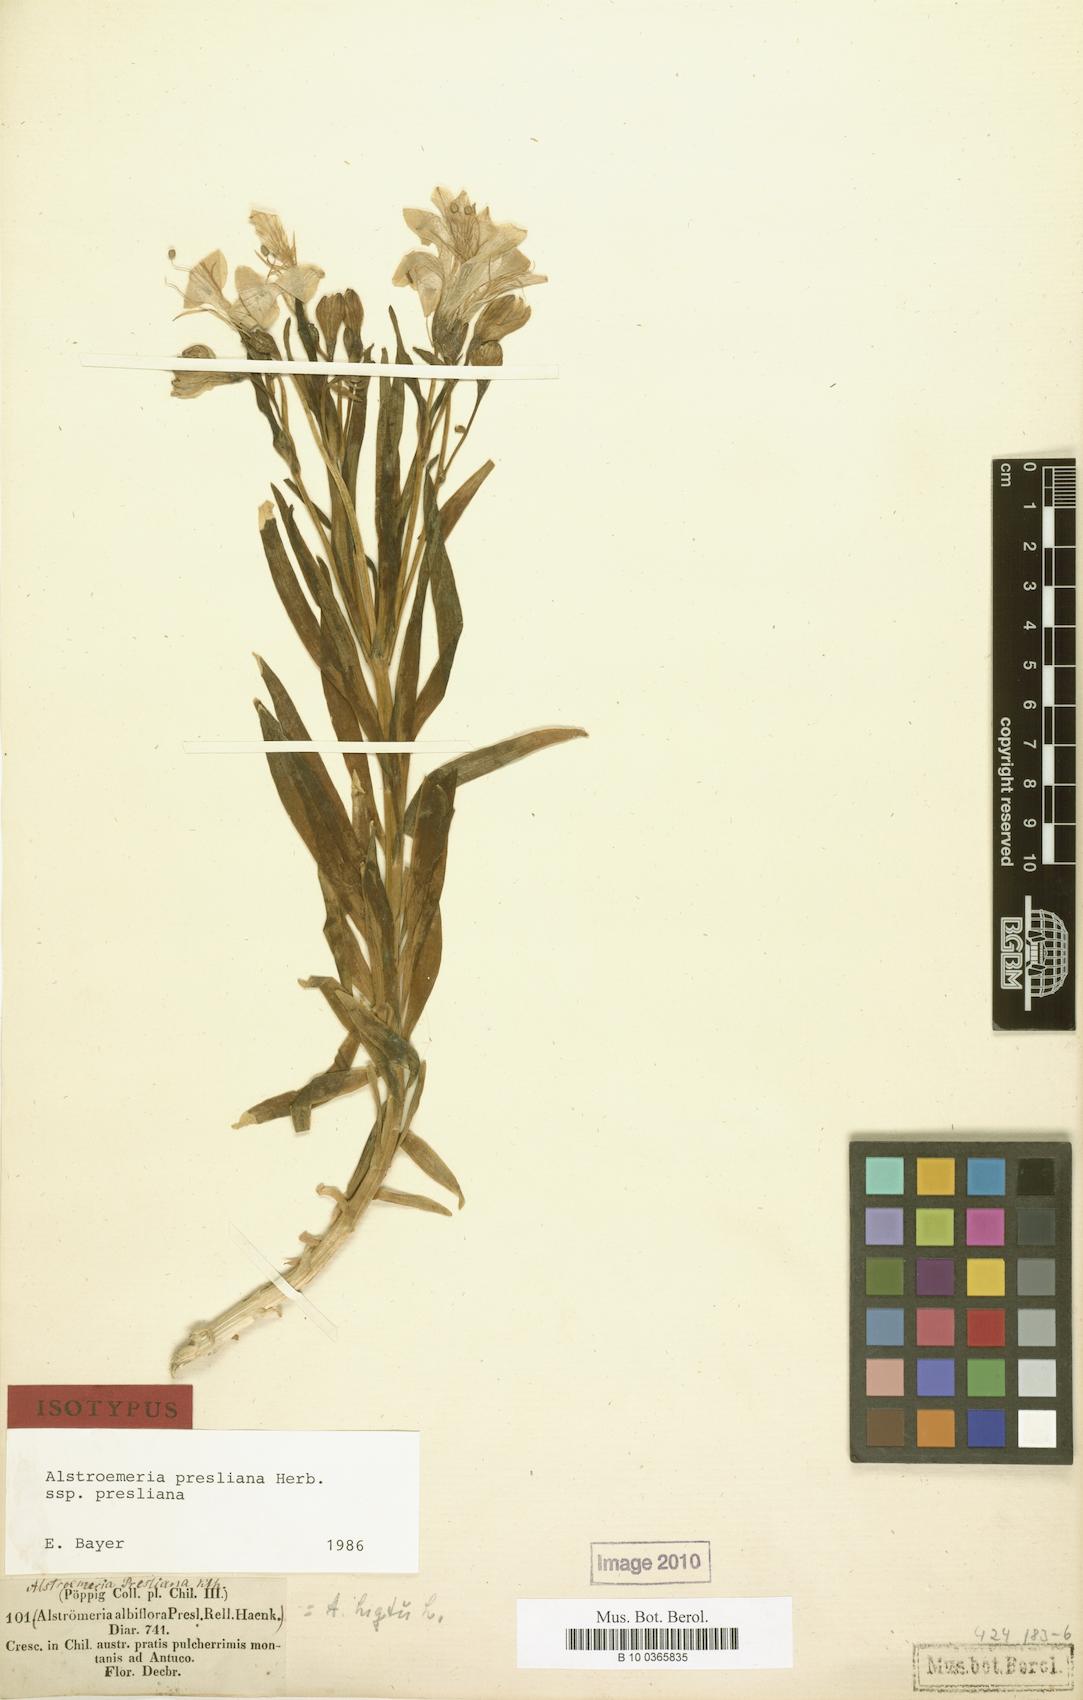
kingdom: Plantae
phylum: Tracheophyta
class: Liliopsida
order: Liliales
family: Alstroemeriaceae
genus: Alstroemeria
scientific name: Alstroemeria presliana
